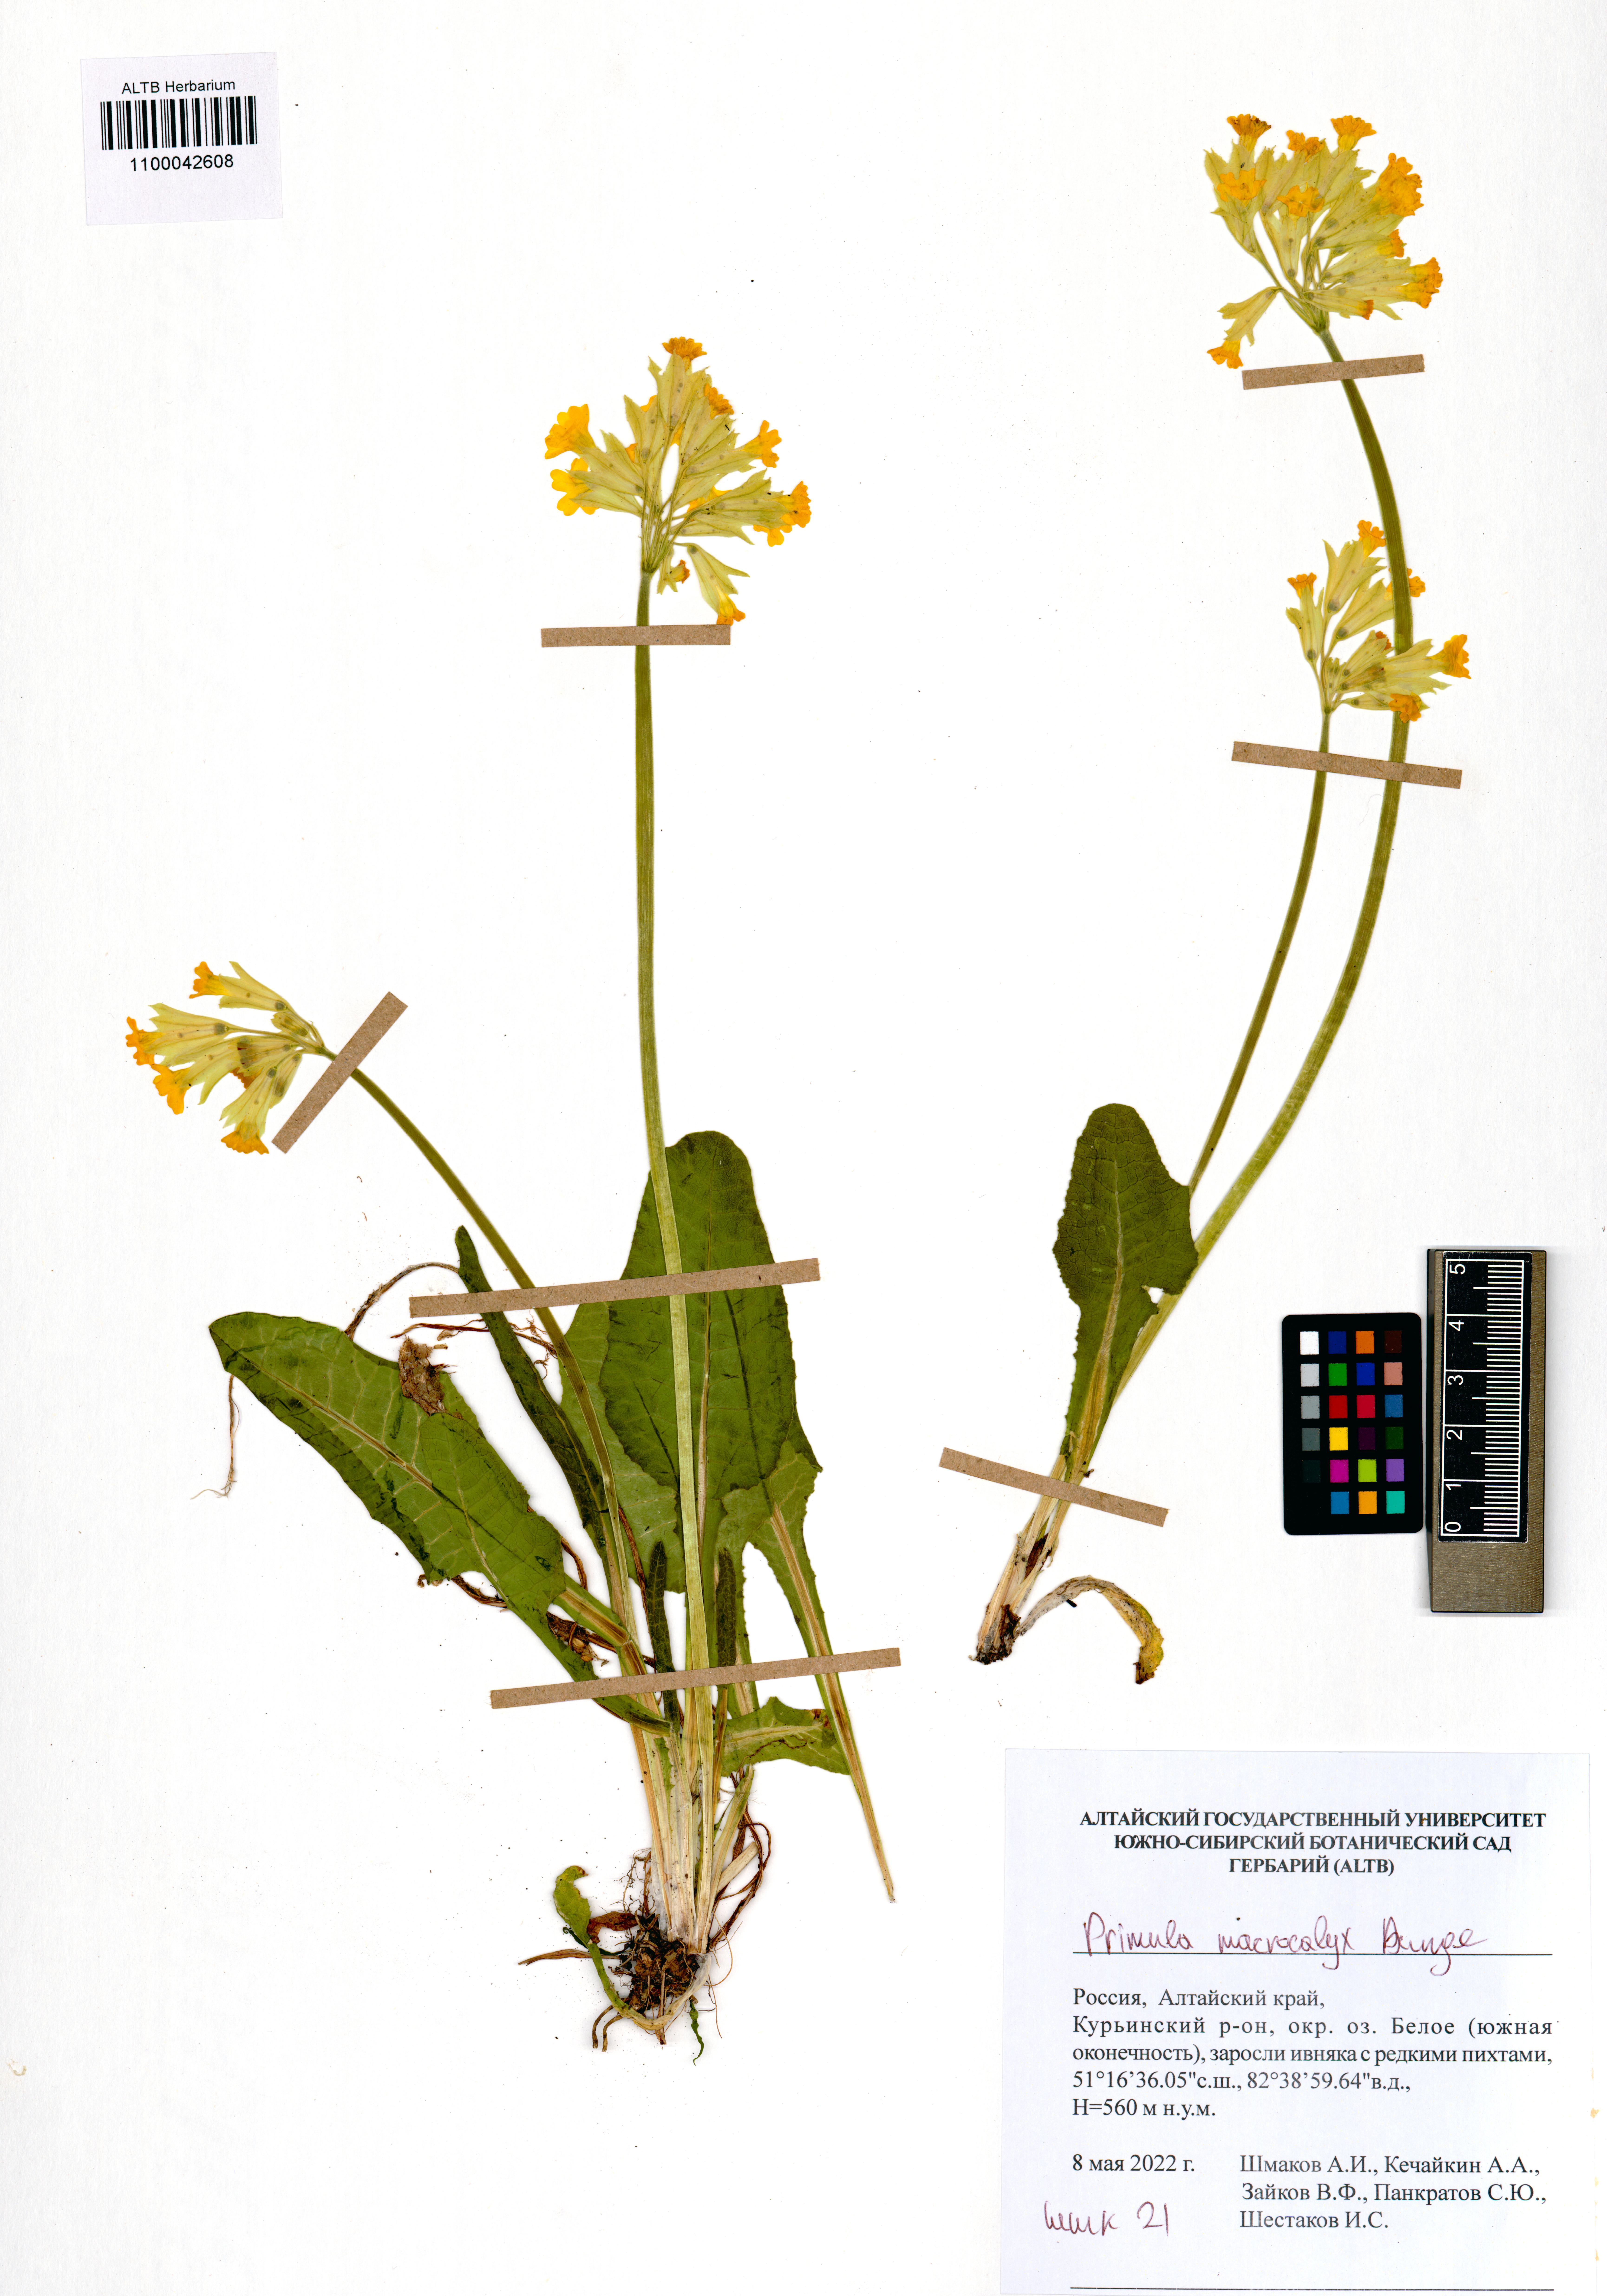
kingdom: Plantae
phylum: Tracheophyta
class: Magnoliopsida
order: Ericales
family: Primulaceae
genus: Primula
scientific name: Primula veris
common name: Cowslip
